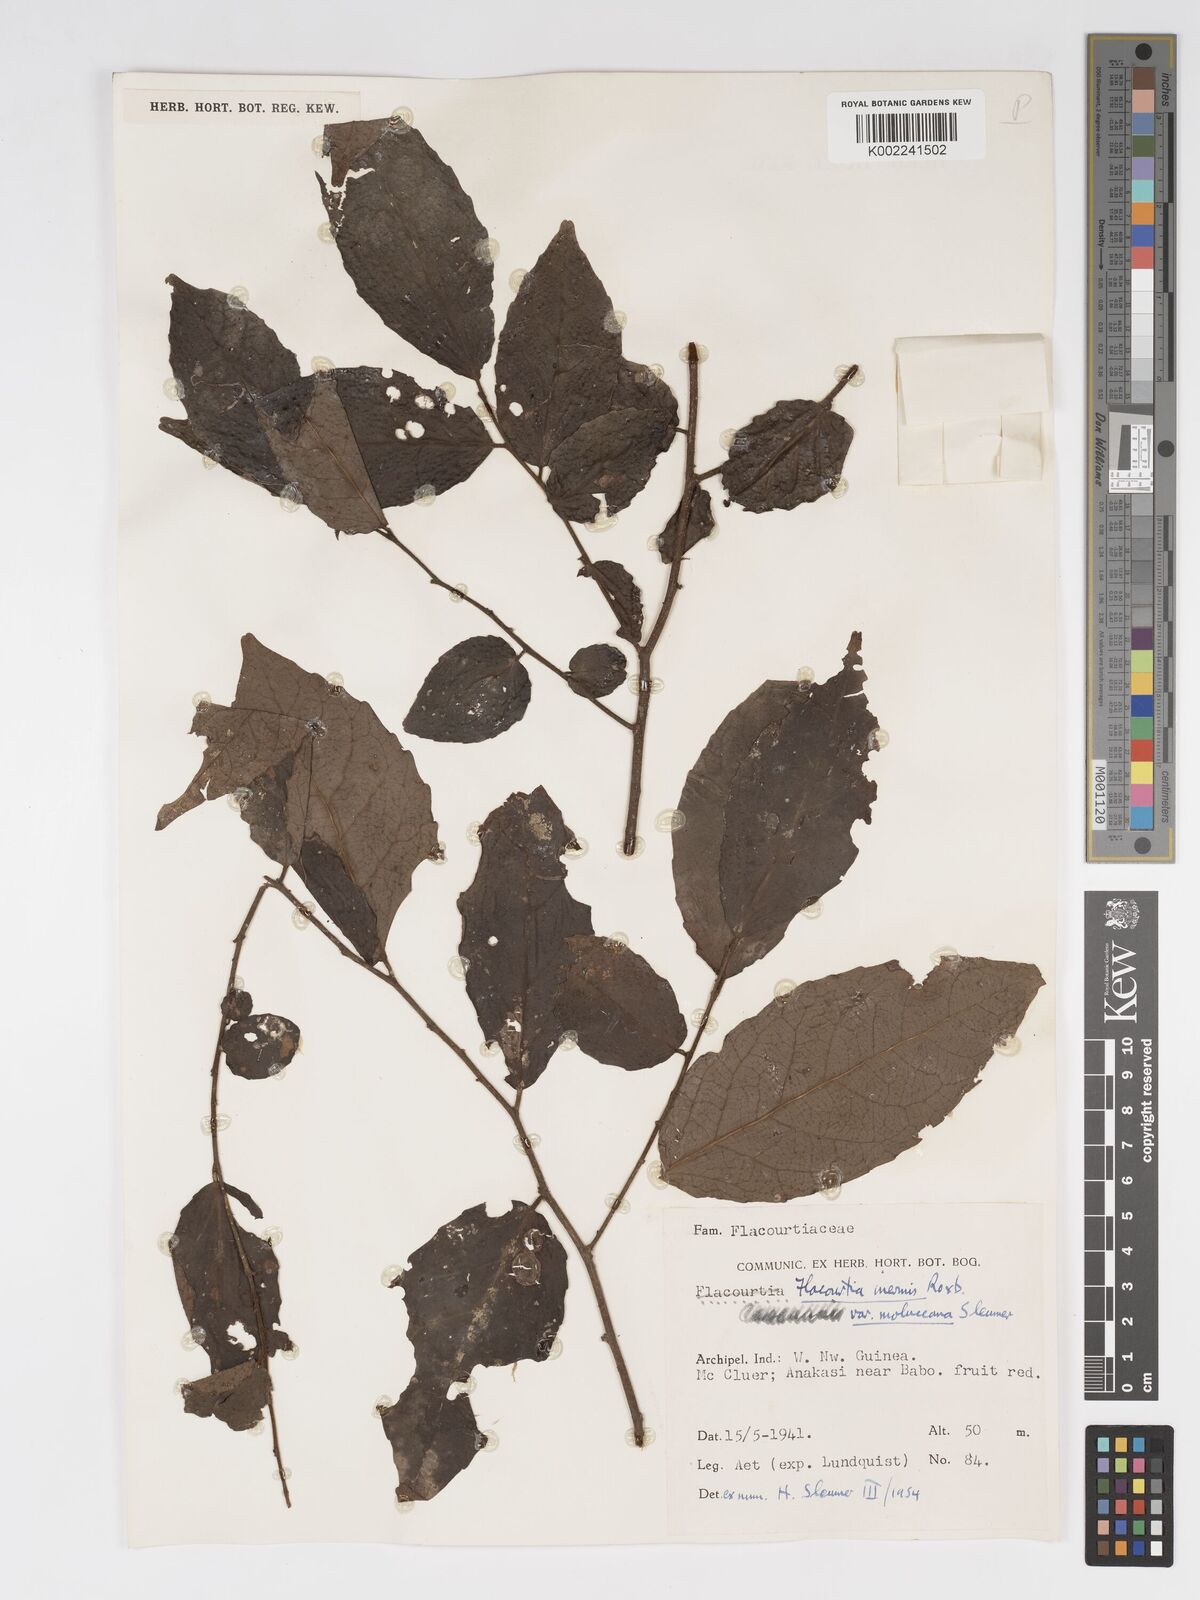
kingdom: Plantae
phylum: Tracheophyta
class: Magnoliopsida
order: Malpighiales
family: Salicaceae
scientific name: Salicaceae
